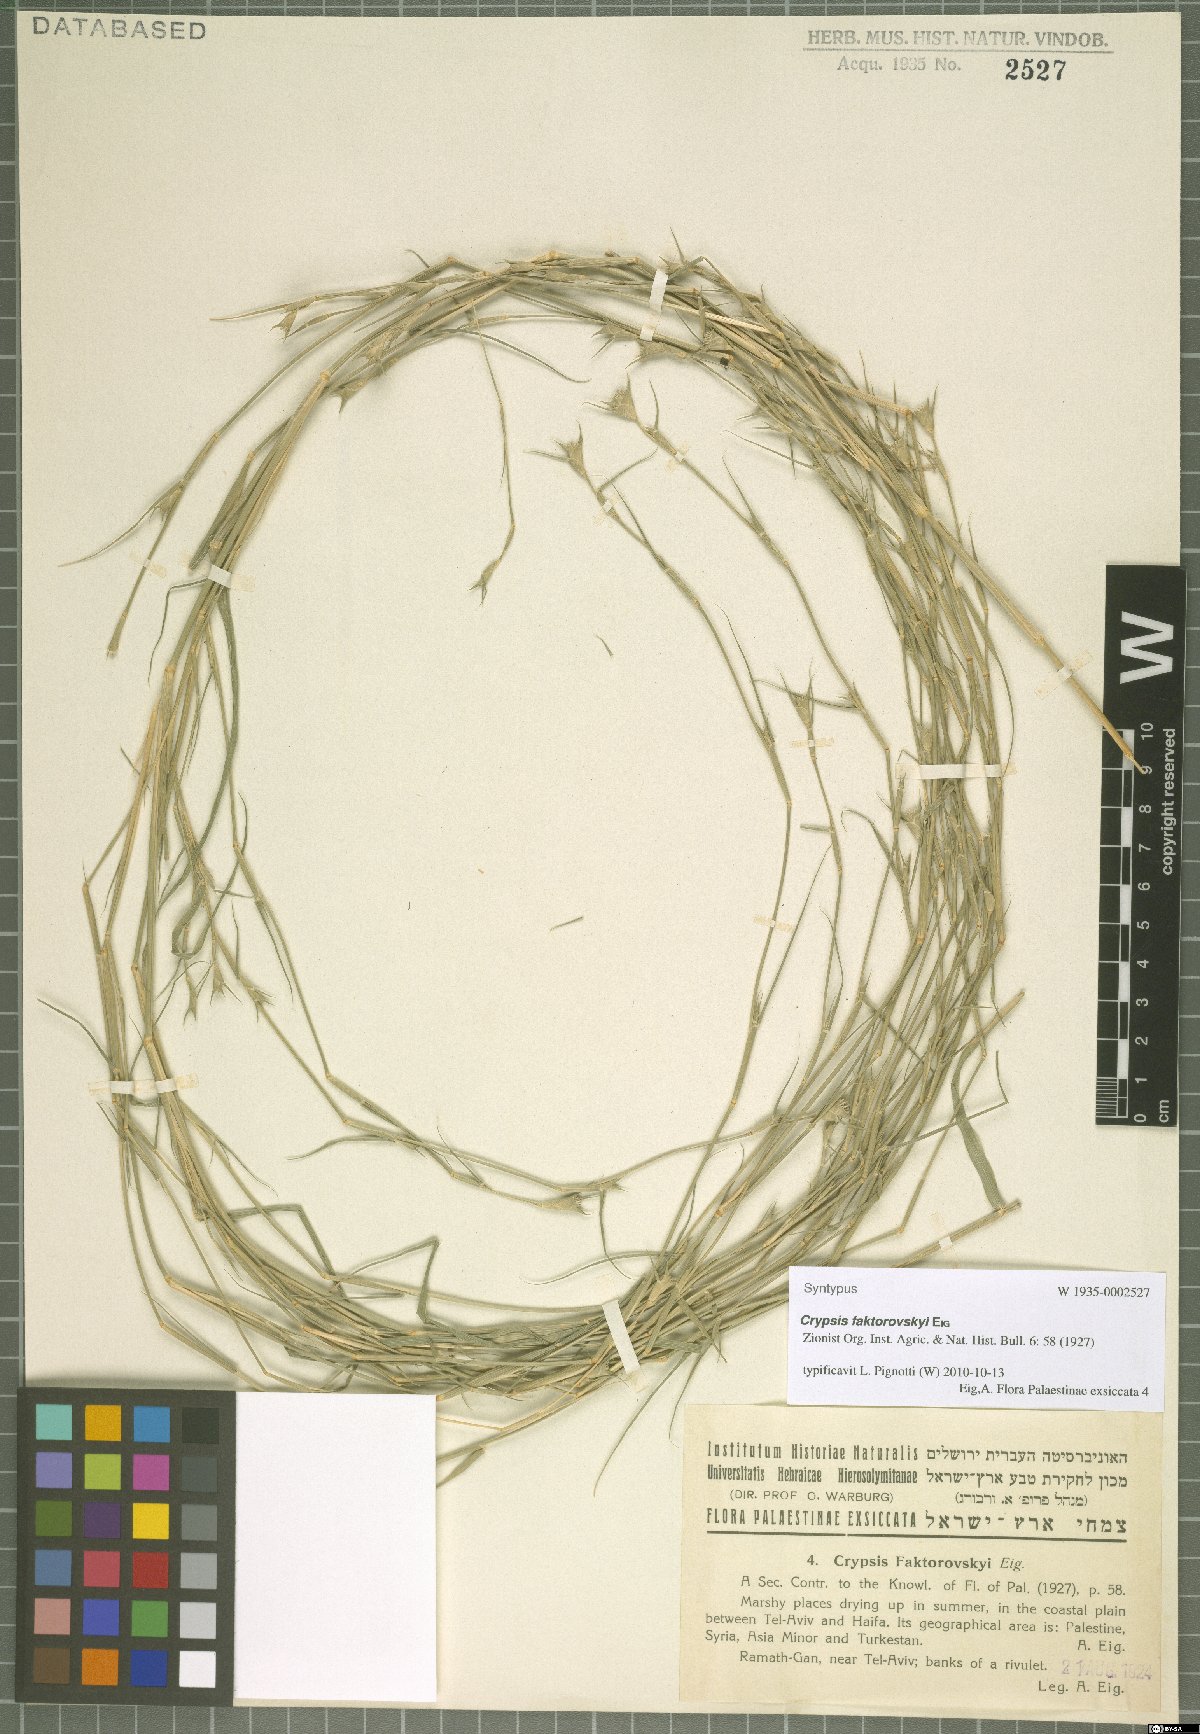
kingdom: Plantae
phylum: Tracheophyta
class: Liliopsida
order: Poales
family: Poaceae
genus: Sporobolus
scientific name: Sporobolus factorovskyi
